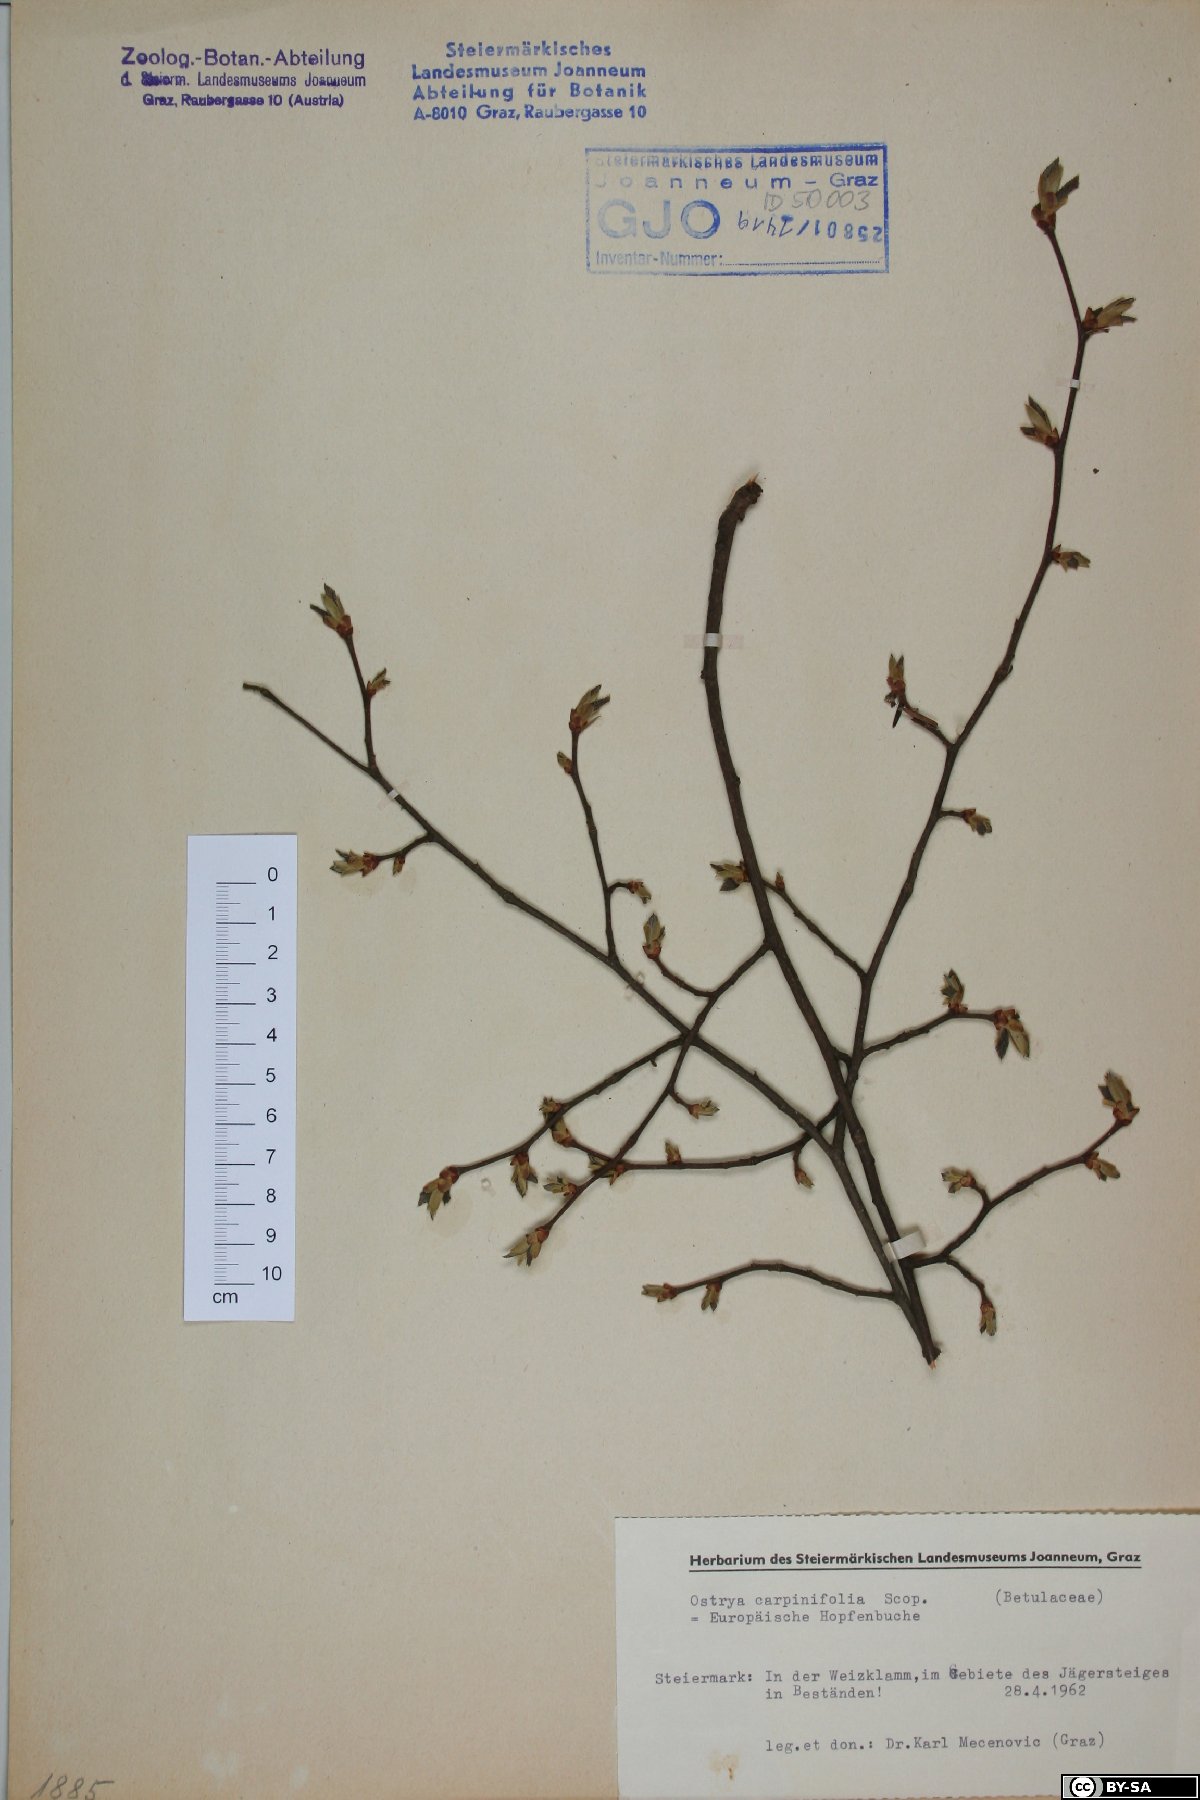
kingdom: Plantae
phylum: Tracheophyta
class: Magnoliopsida
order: Fagales
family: Betulaceae
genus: Ostrya
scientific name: Ostrya carpinifolia
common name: European hop-hornbeam
